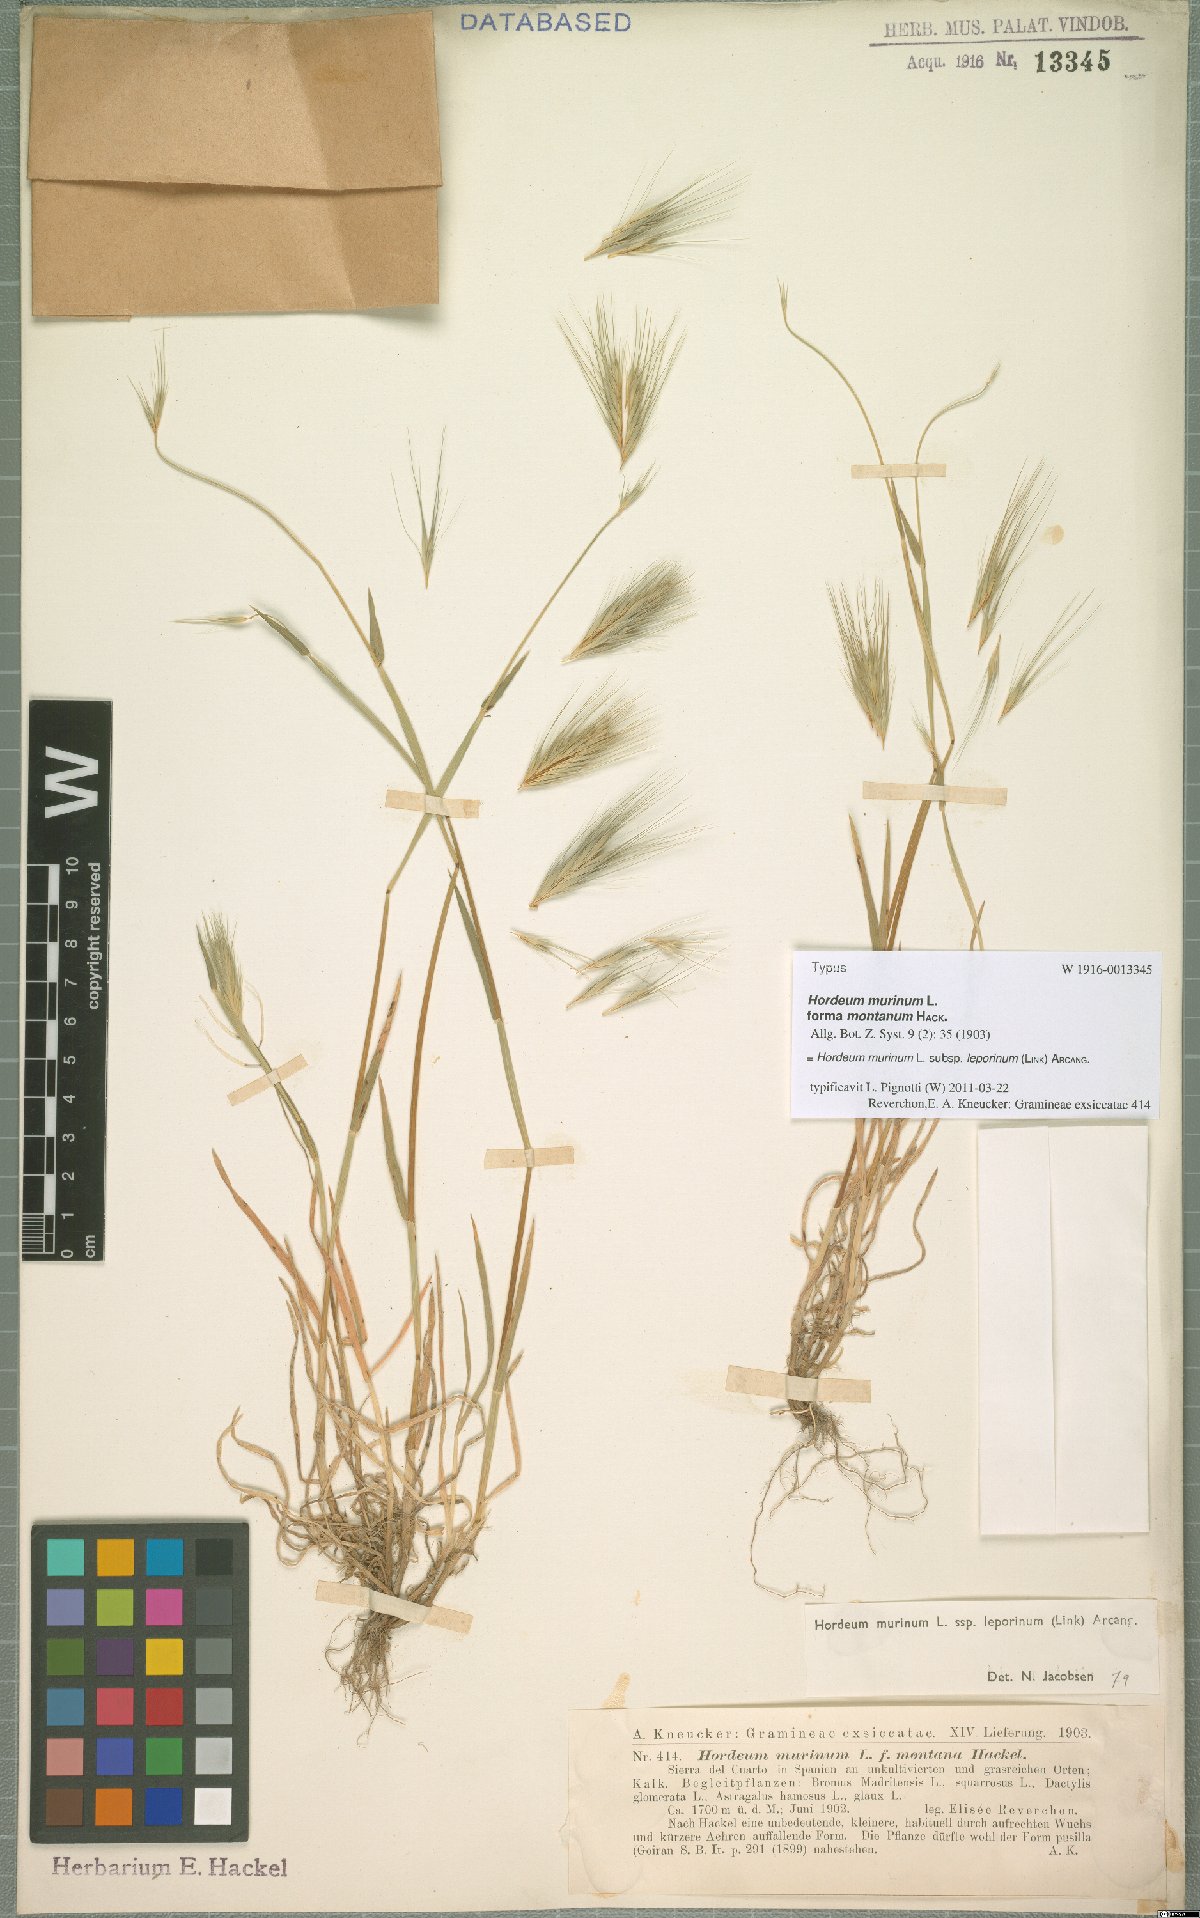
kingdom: Plantae
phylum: Tracheophyta
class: Liliopsida
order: Poales
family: Poaceae
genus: Hordeum
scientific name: Hordeum murinum
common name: Wall barley
